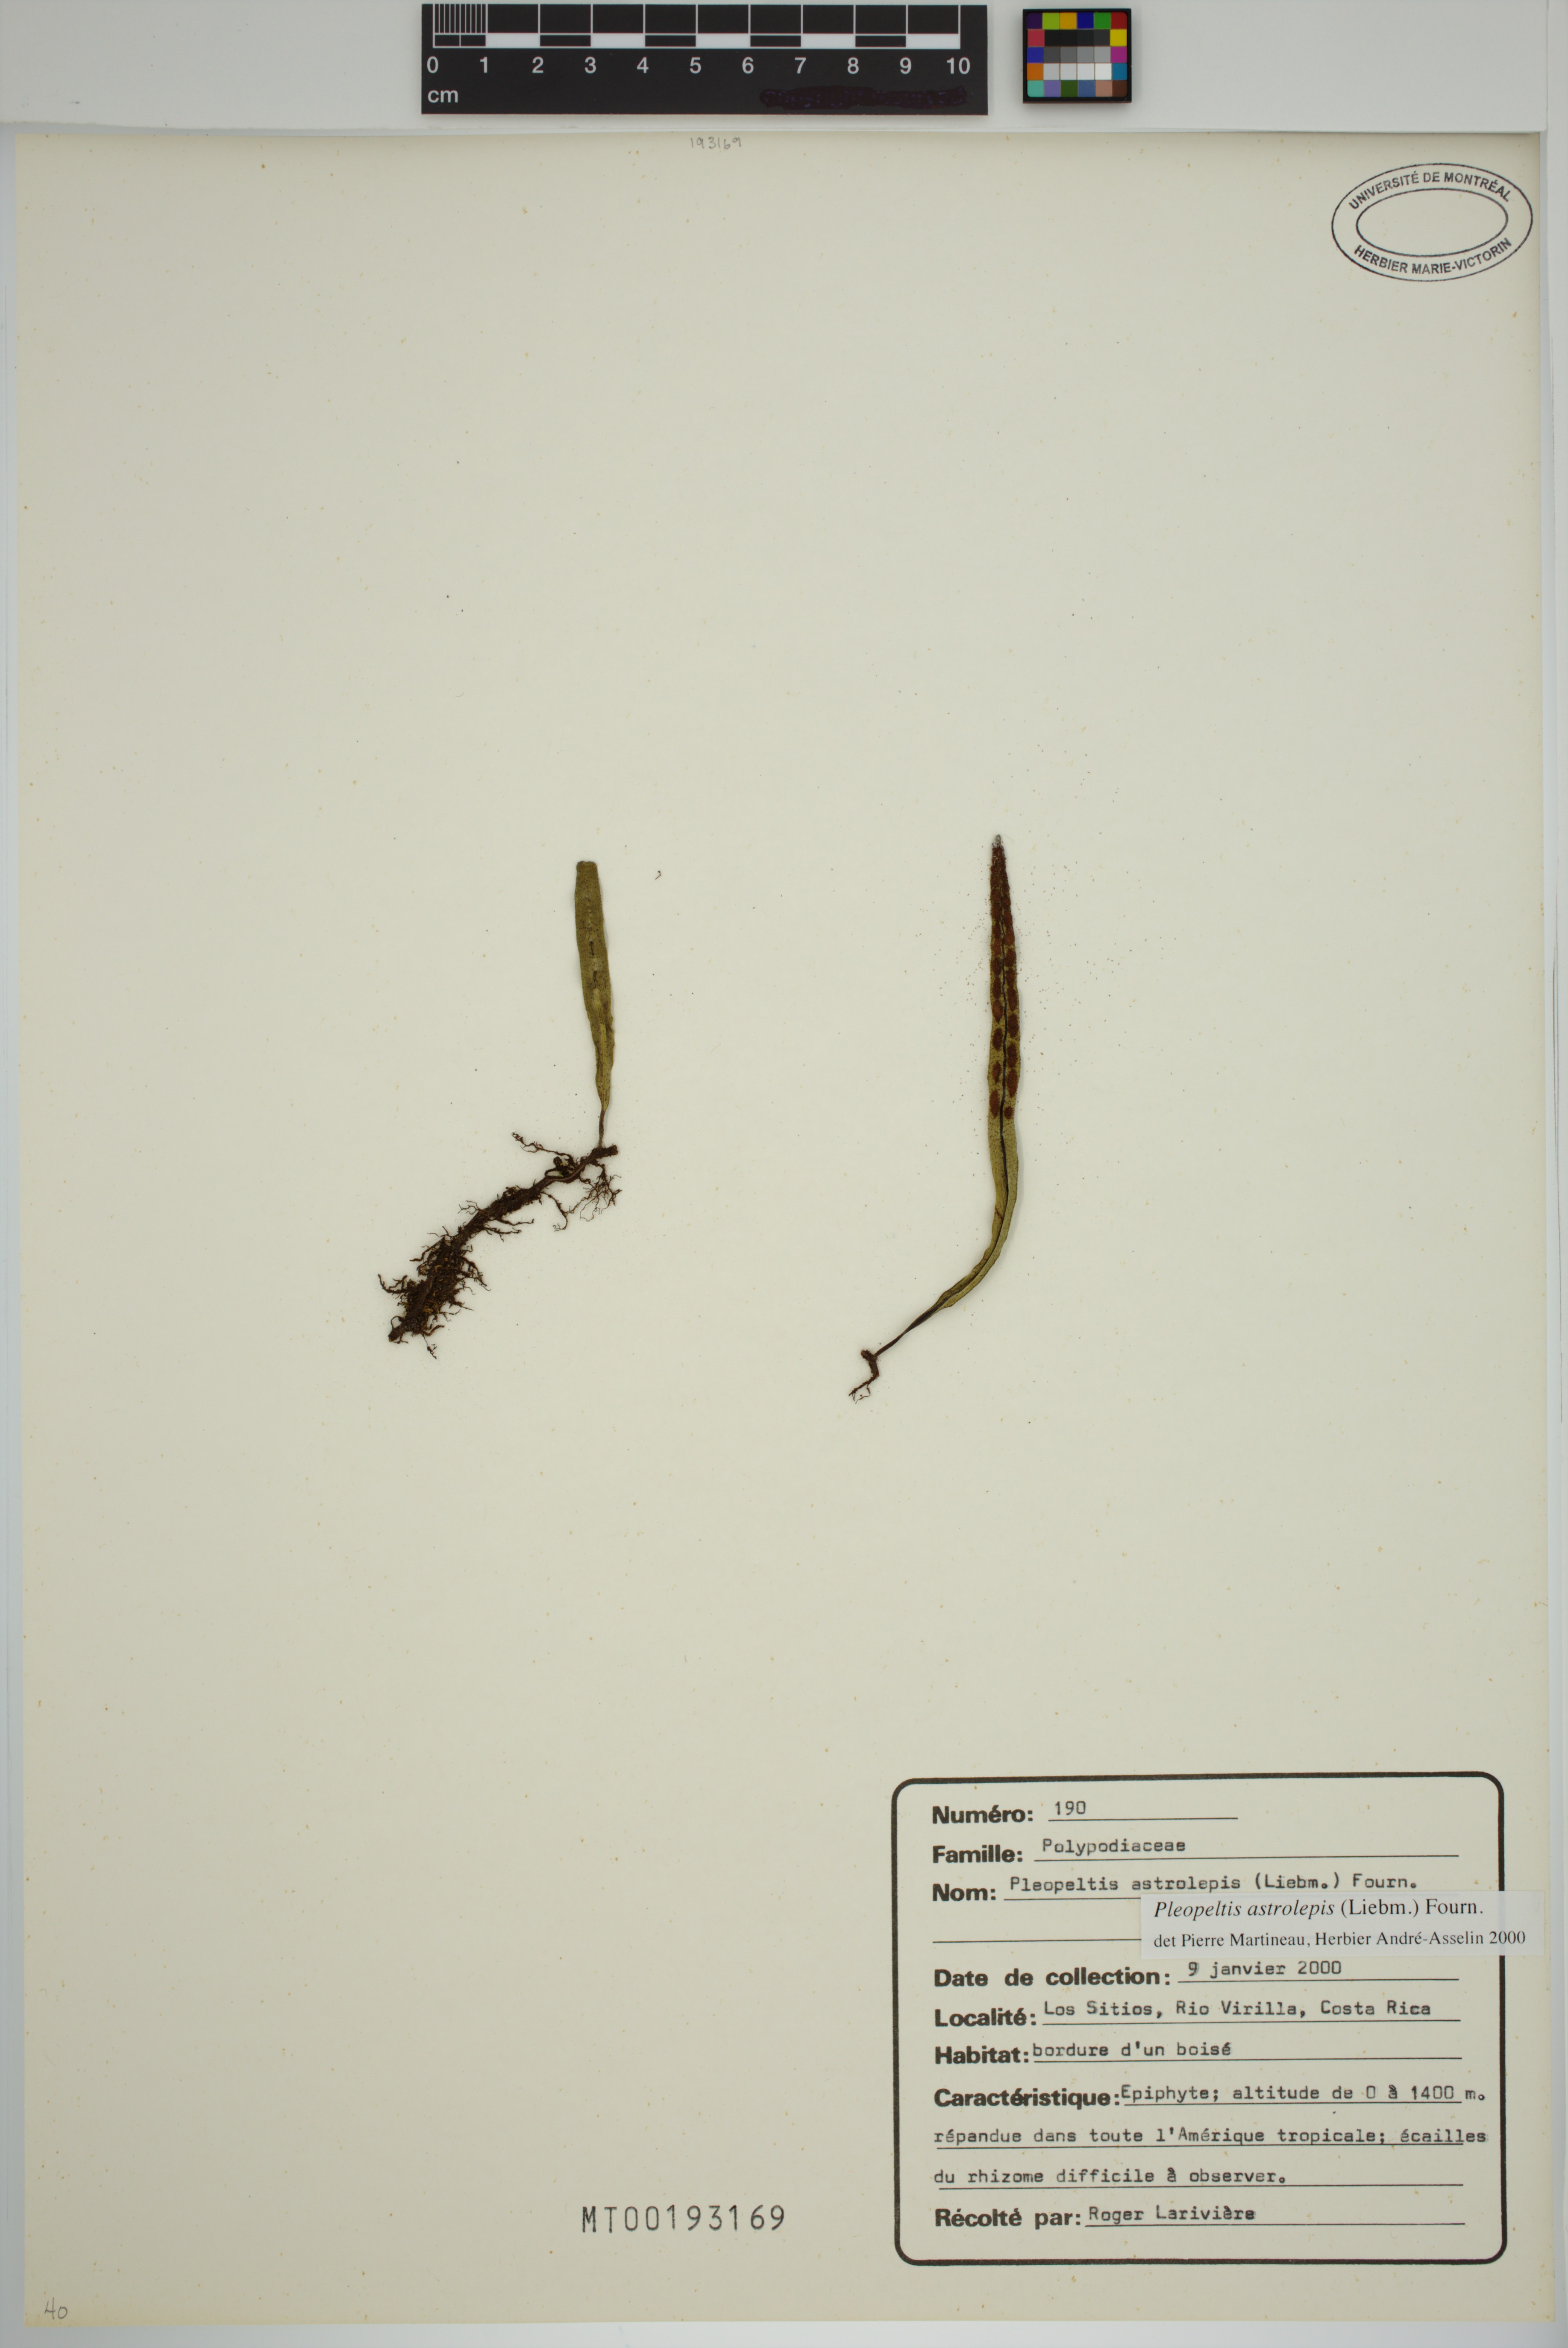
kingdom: Plantae
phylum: Tracheophyta
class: Polypodiopsida
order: Polypodiales
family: Polypodiaceae
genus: Pleopeltis
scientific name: Pleopeltis astrolepis
